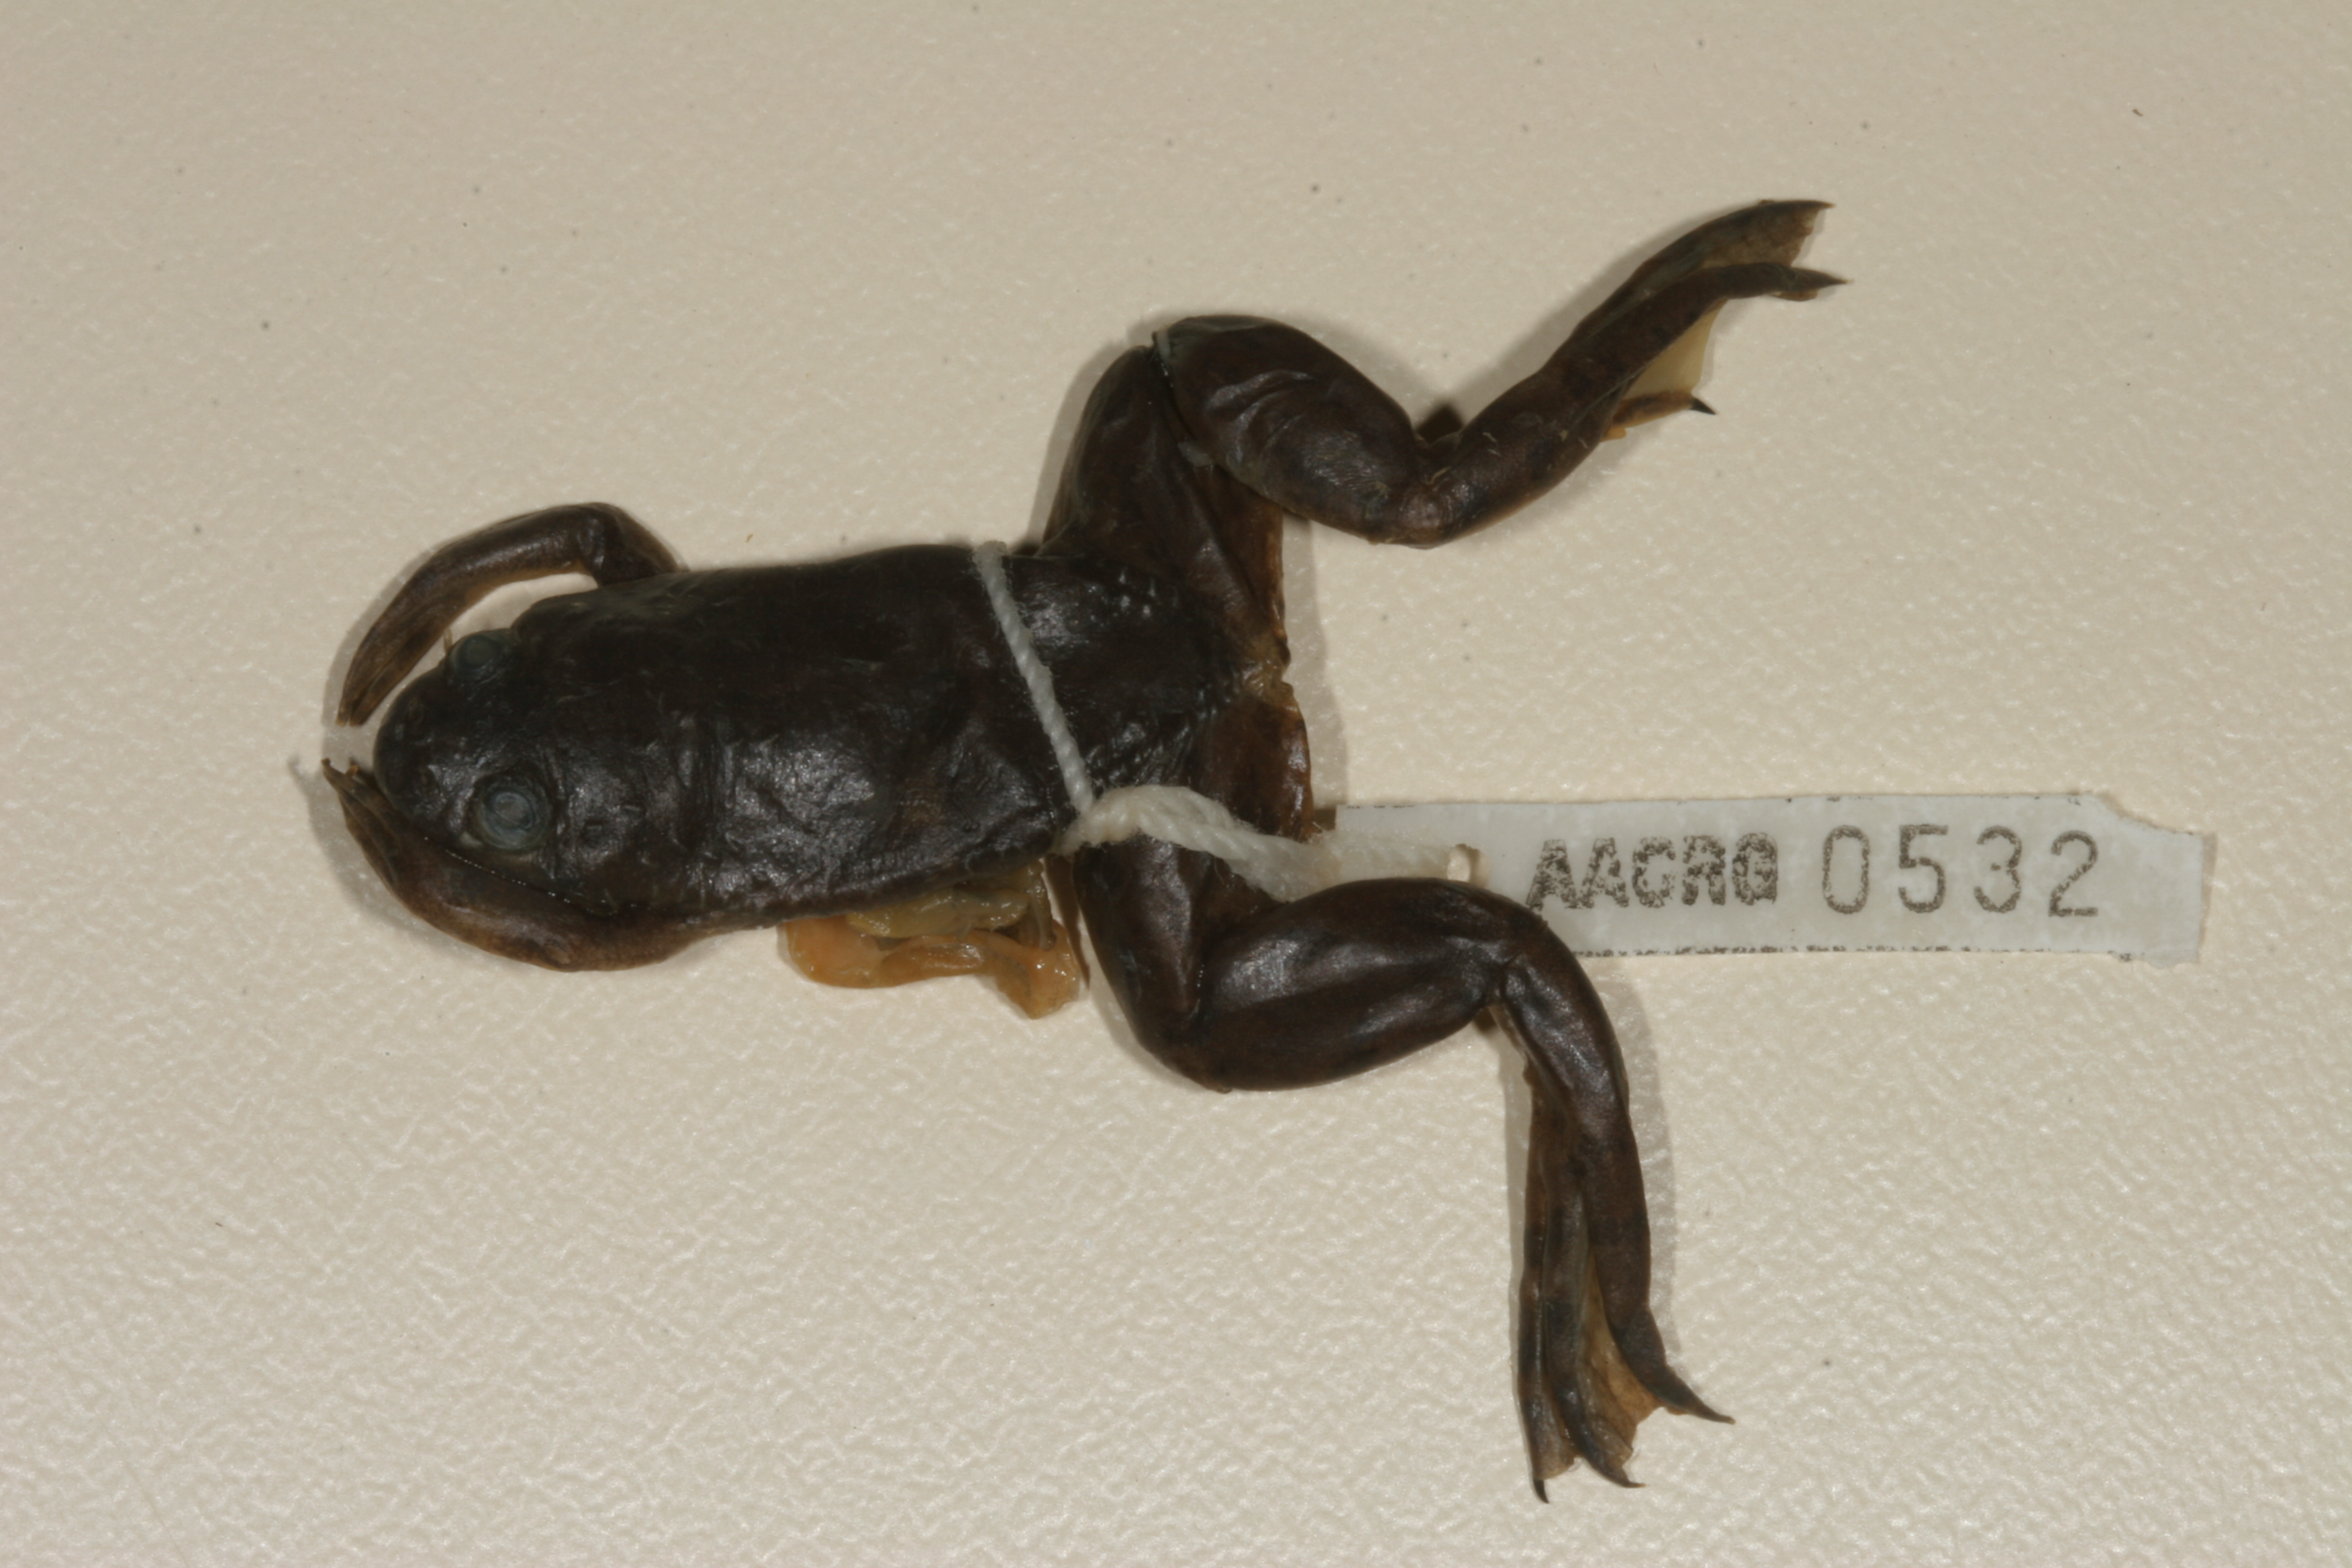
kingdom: Animalia
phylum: Chordata
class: Amphibia
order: Anura
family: Pipidae
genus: Xenopus
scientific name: Xenopus muelleri
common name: Muller's clawed frog
